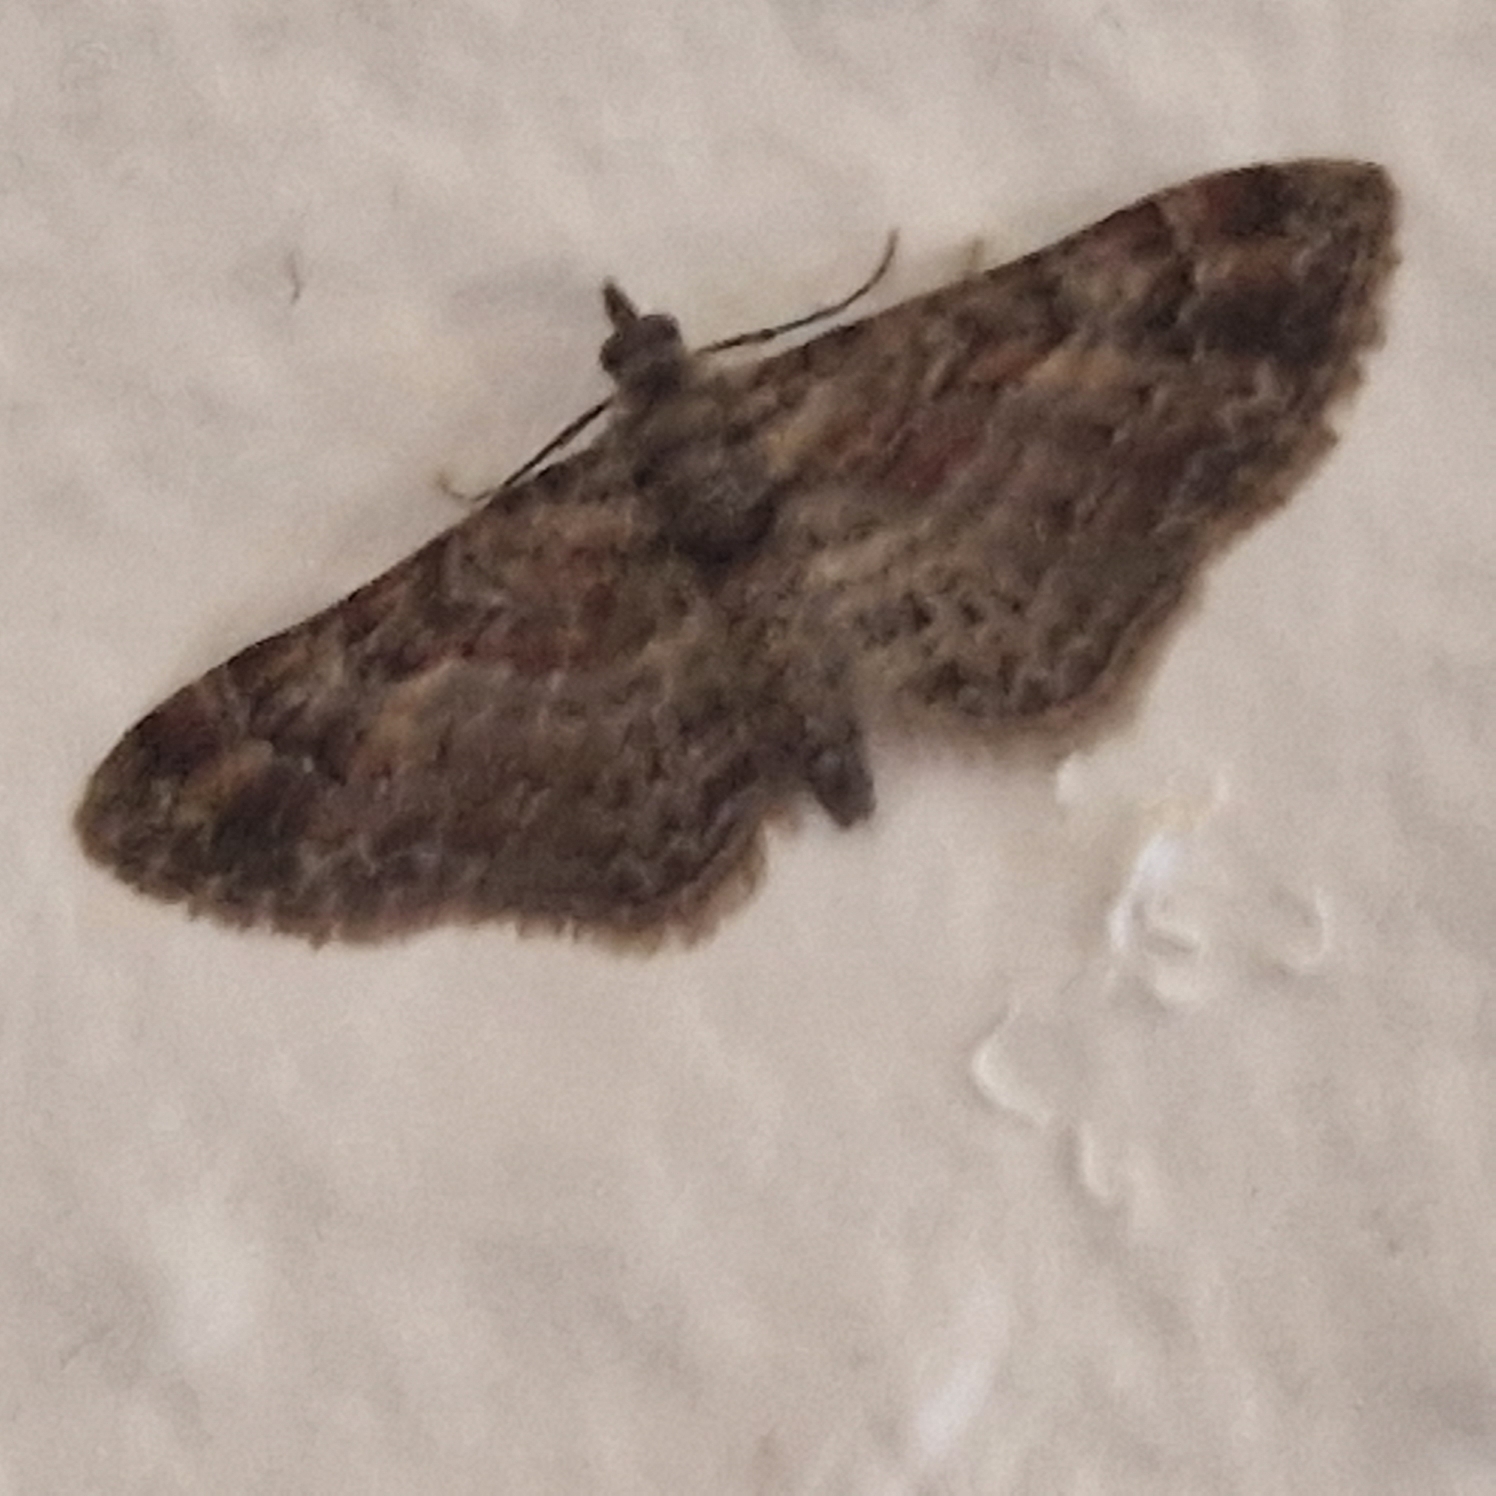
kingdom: Animalia
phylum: Arthropoda
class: Insecta
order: Lepidoptera
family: Geometridae
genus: Gymnoscelis
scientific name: Gymnoscelis rufifasciata
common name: Rødbåndet dværgmåler
